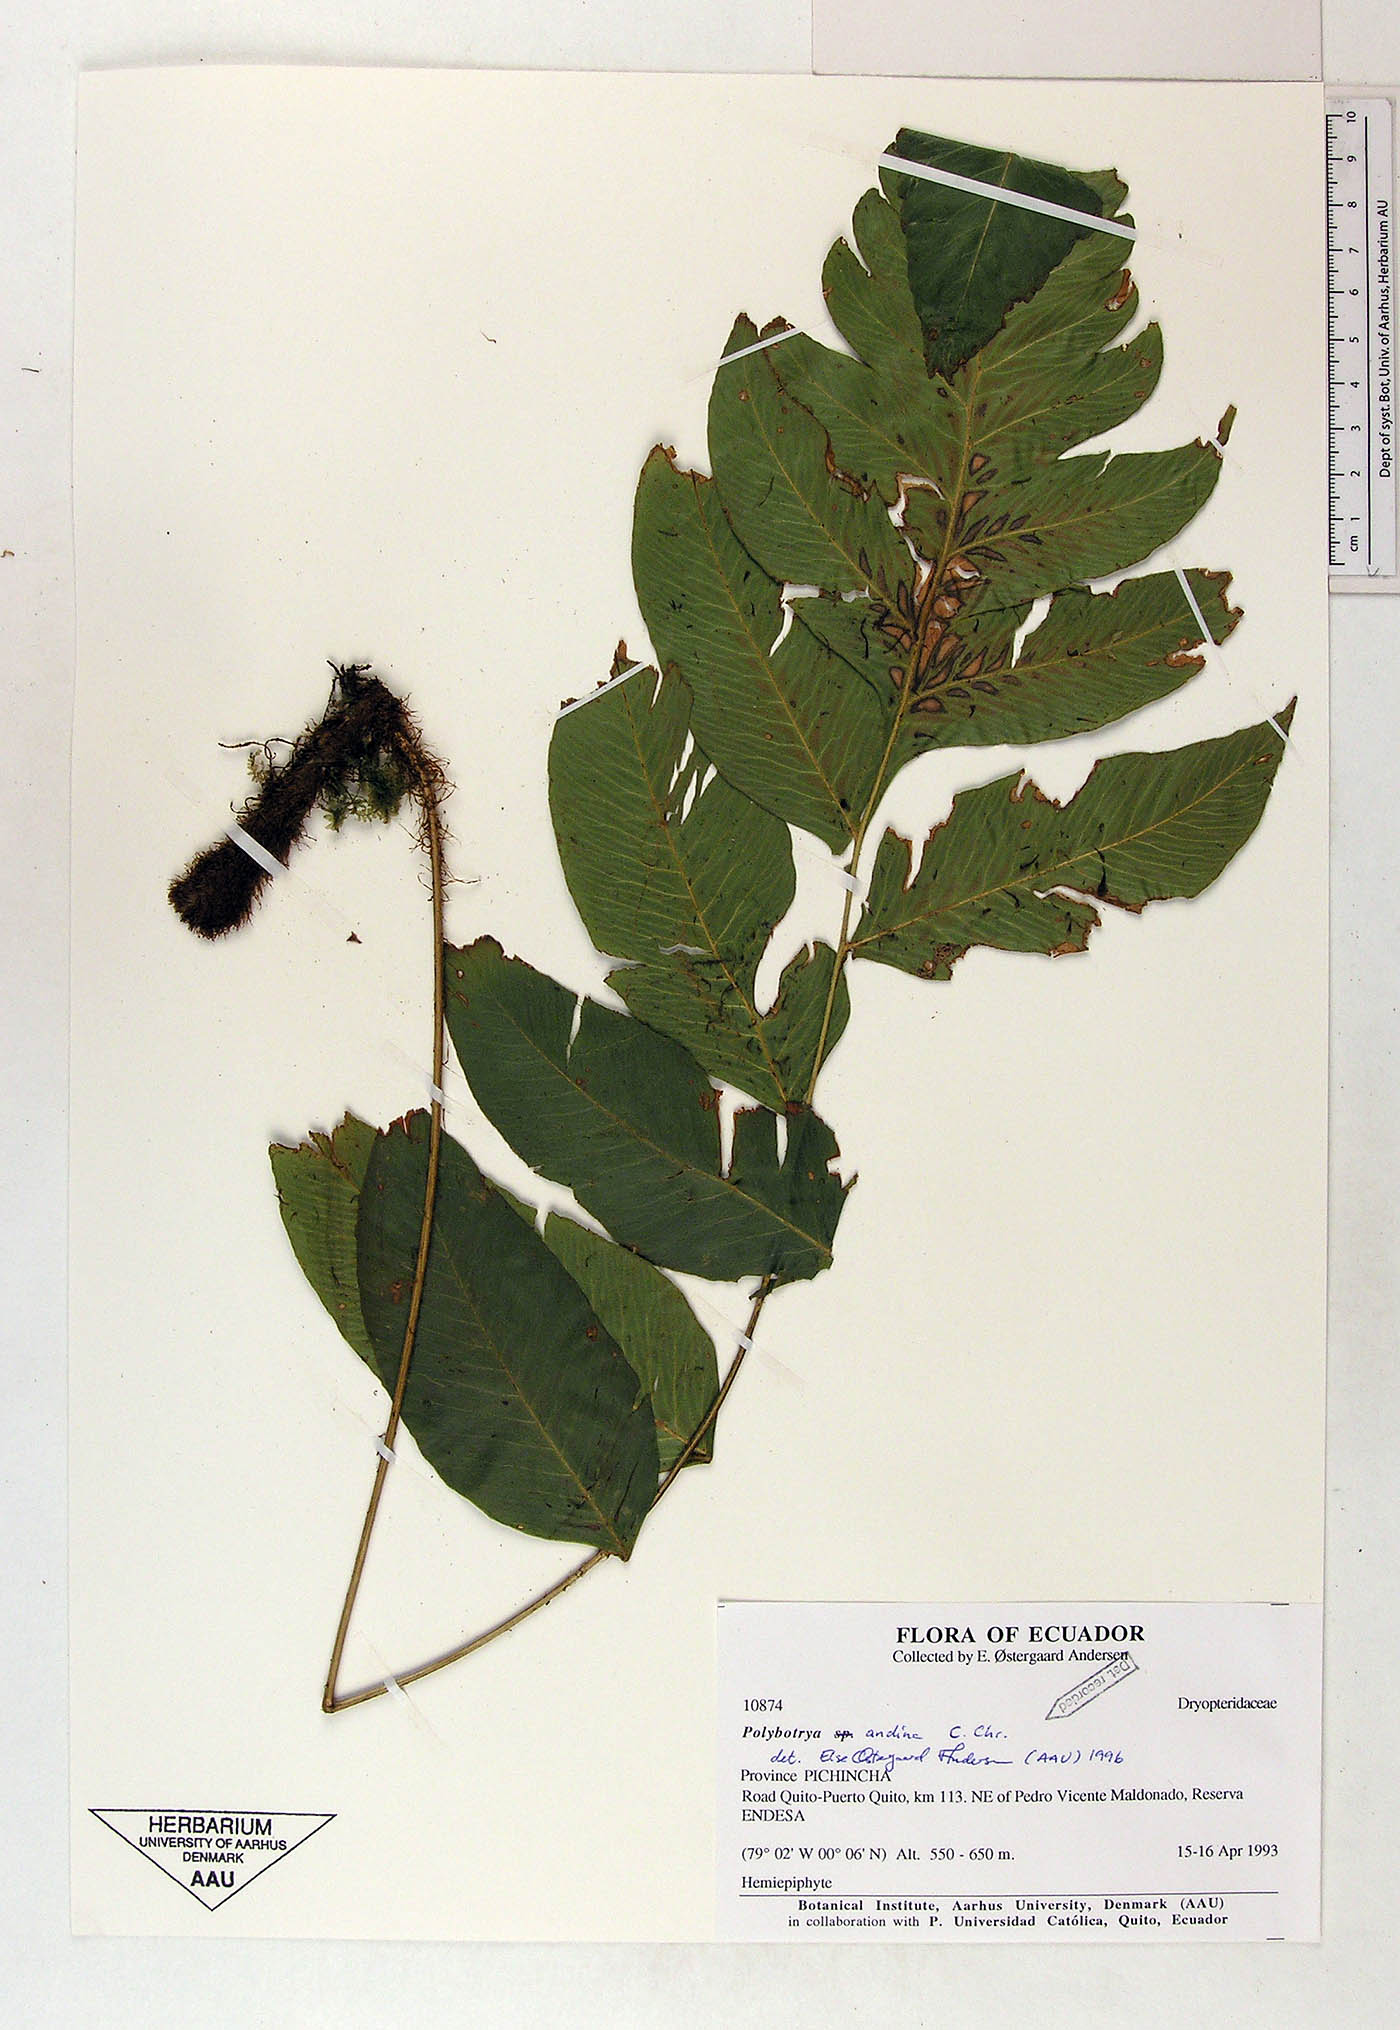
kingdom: Plantae
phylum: Tracheophyta
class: Polypodiopsida
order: Polypodiales
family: Dryopteridaceae
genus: Polybotrya
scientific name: Polybotrya andina
